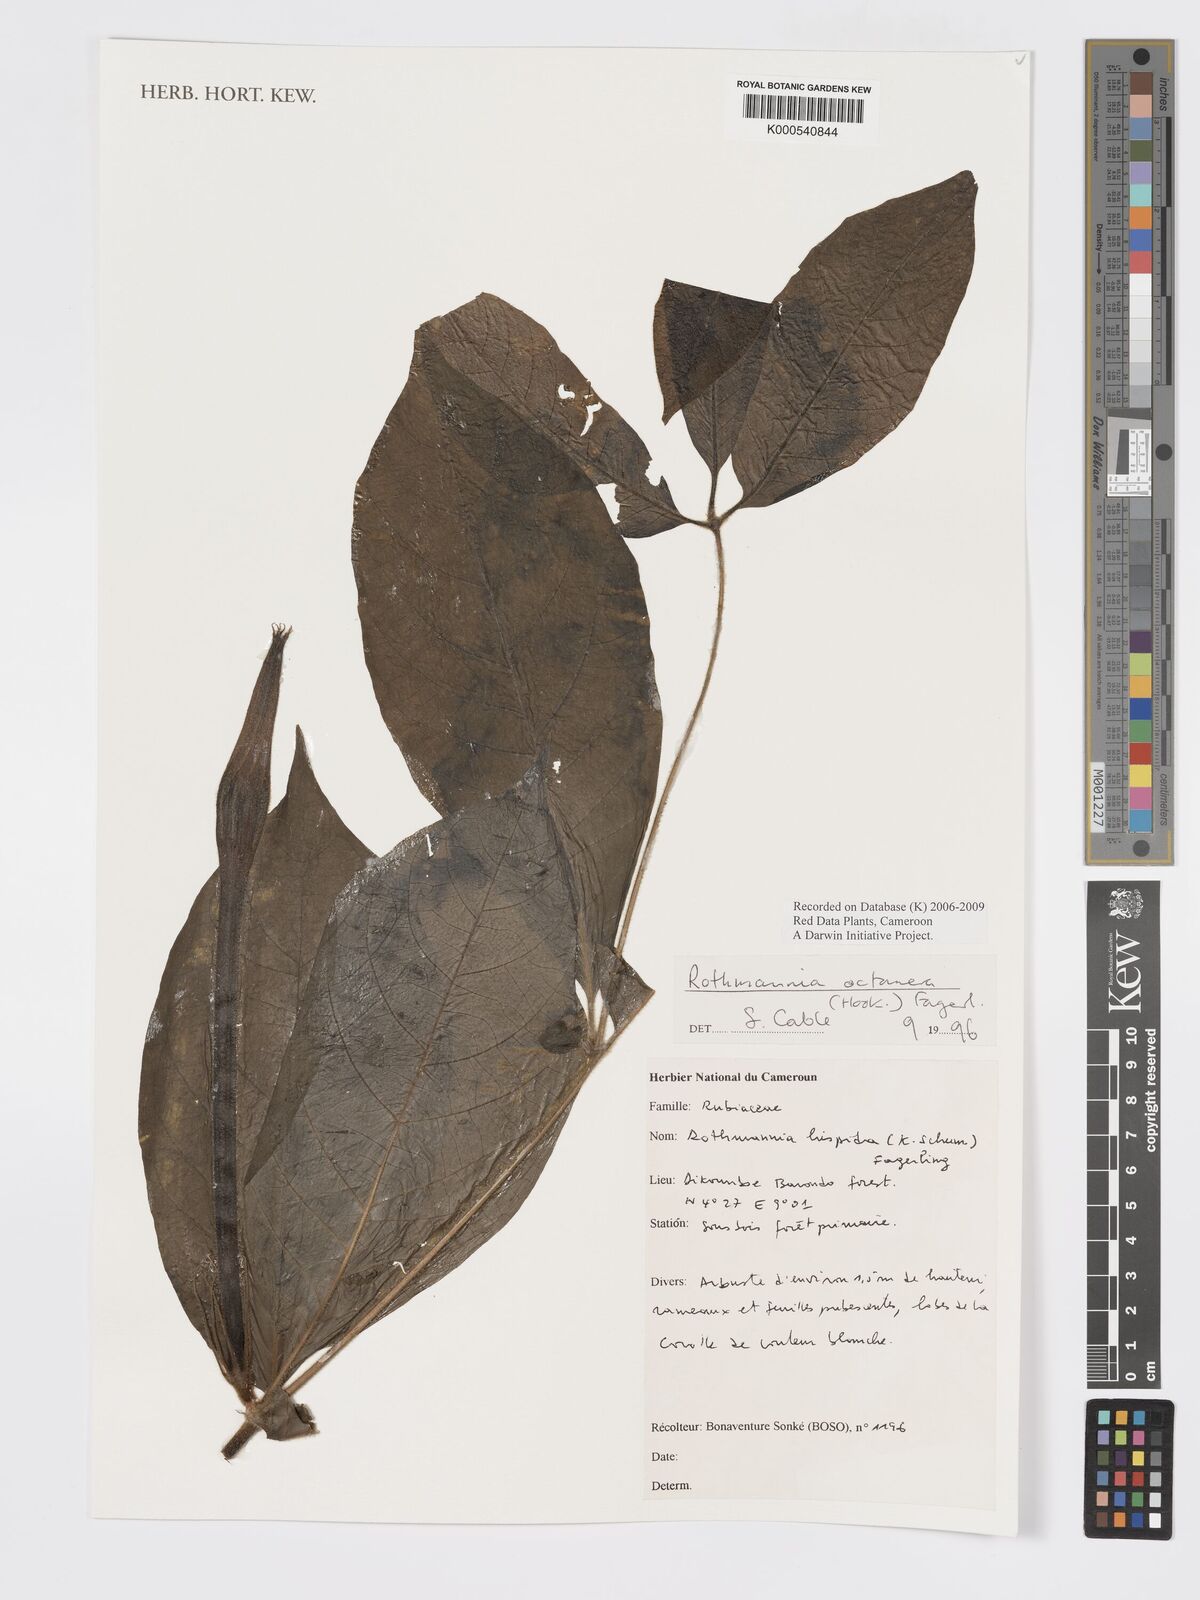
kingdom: Plantae
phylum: Tracheophyta
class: Magnoliopsida
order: Gentianales
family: Rubiaceae
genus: Rothmannia
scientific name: Rothmannia octomera
